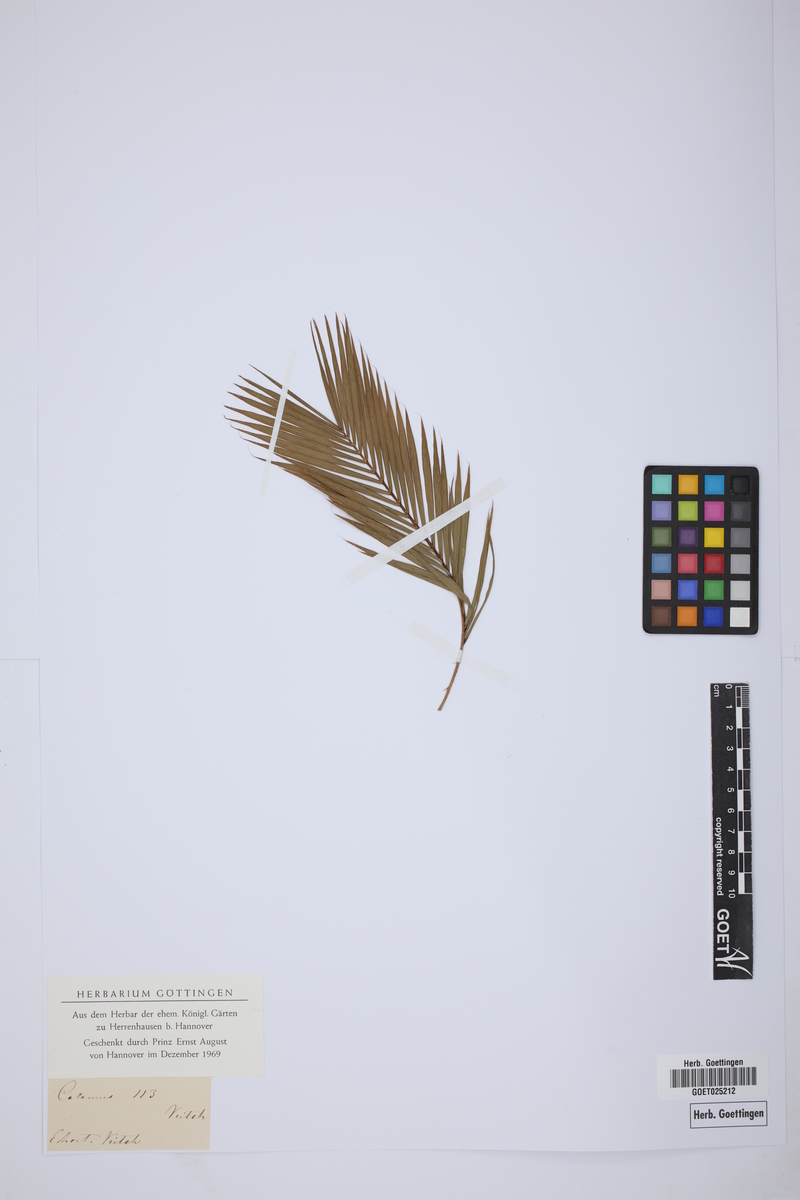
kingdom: Plantae
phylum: Tracheophyta
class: Liliopsida
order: Arecales
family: Arecaceae
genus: Calamus
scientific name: Calamus
